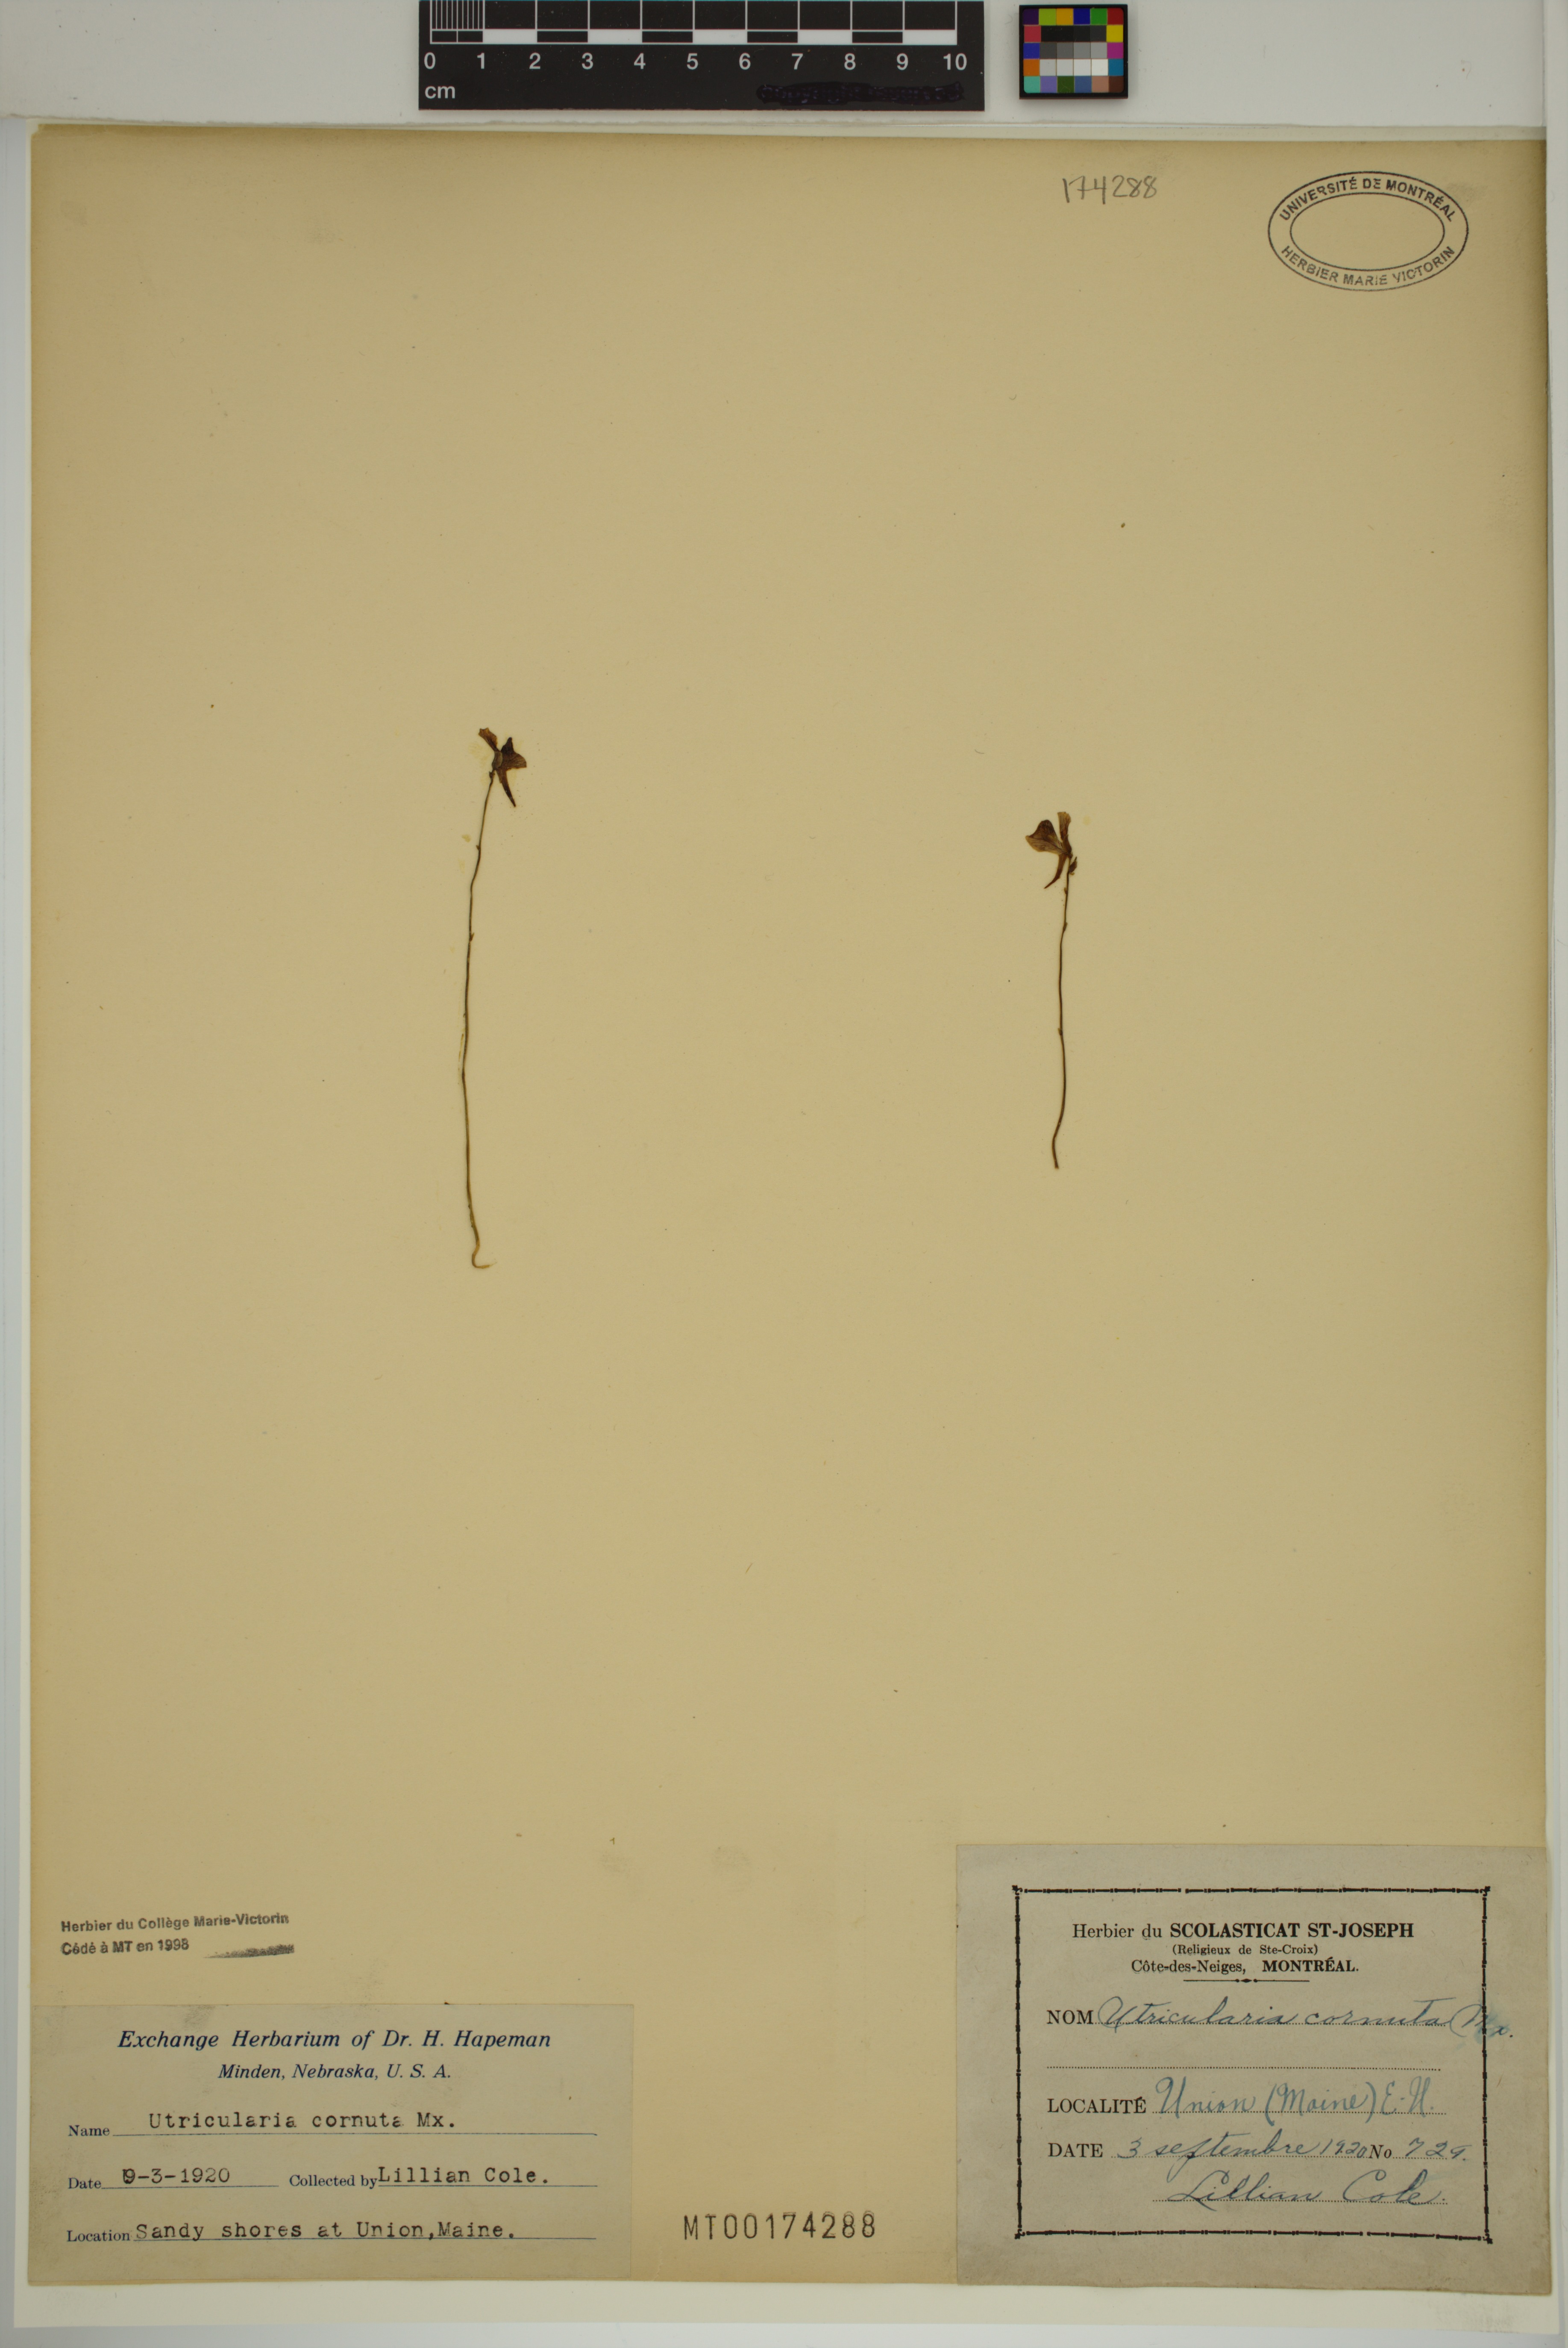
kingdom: Plantae
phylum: Tracheophyta
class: Magnoliopsida
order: Lamiales
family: Lentibulariaceae
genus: Utricularia
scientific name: Utricularia cornuta
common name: Horned bladderwort
